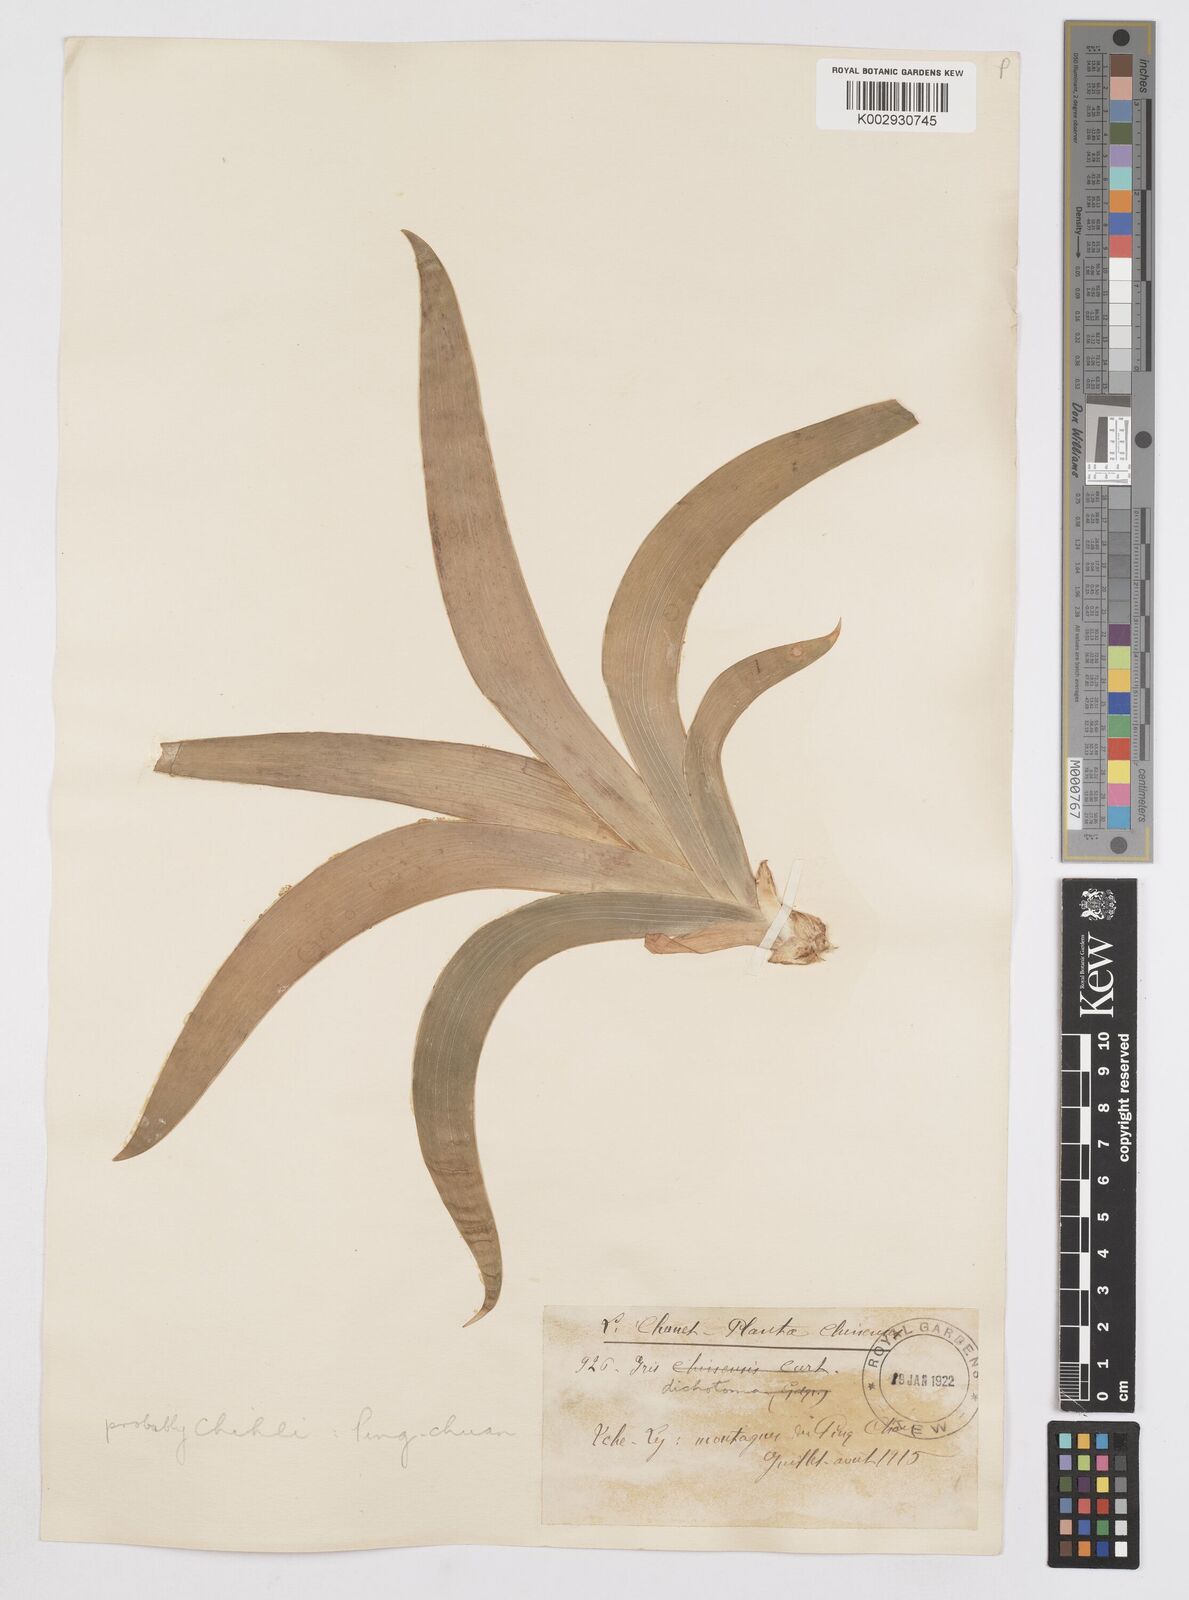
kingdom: Plantae
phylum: Tracheophyta
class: Liliopsida
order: Asparagales
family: Iridaceae
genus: Iris
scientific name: Iris dichotoma
